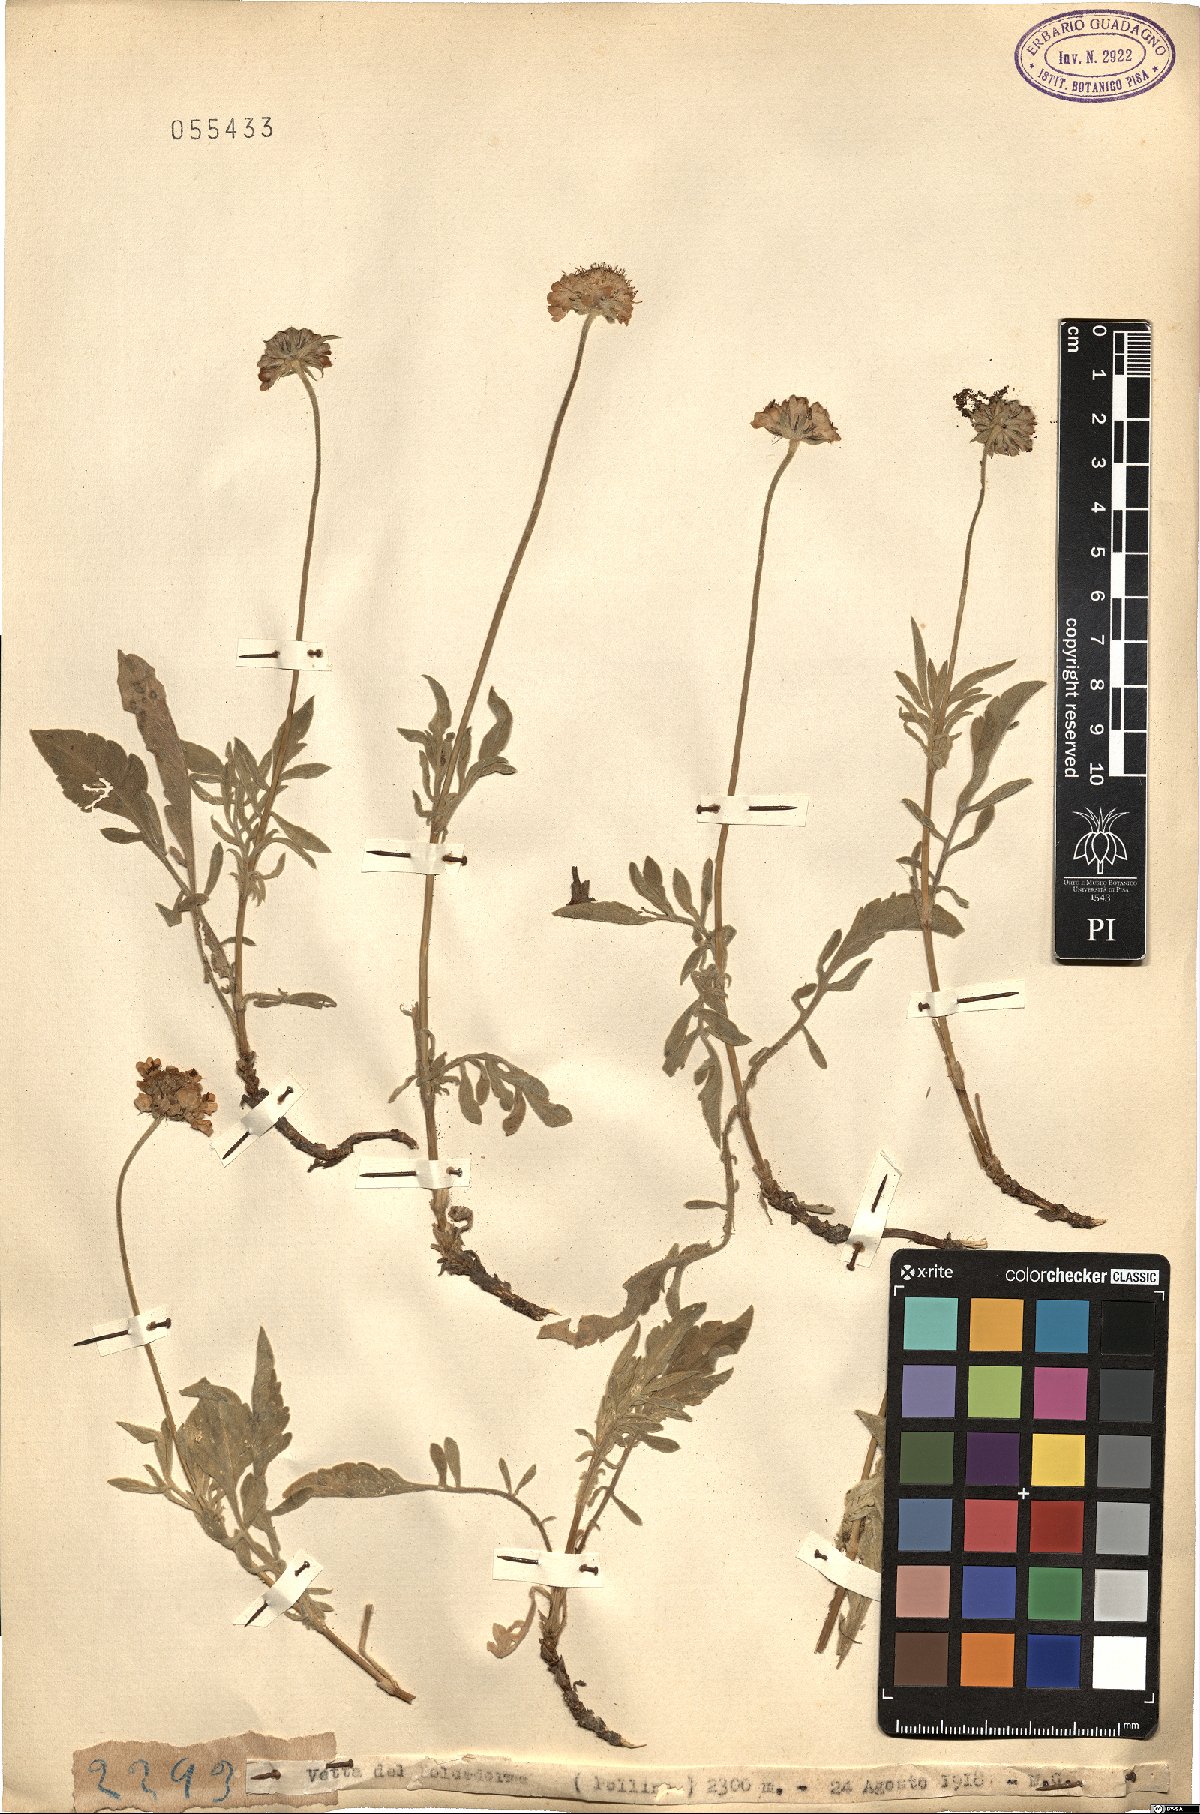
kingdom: Plantae
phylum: Tracheophyta
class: Magnoliopsida
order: Dipsacales
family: Caprifoliaceae
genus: Scabiosa
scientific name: Scabiosa
